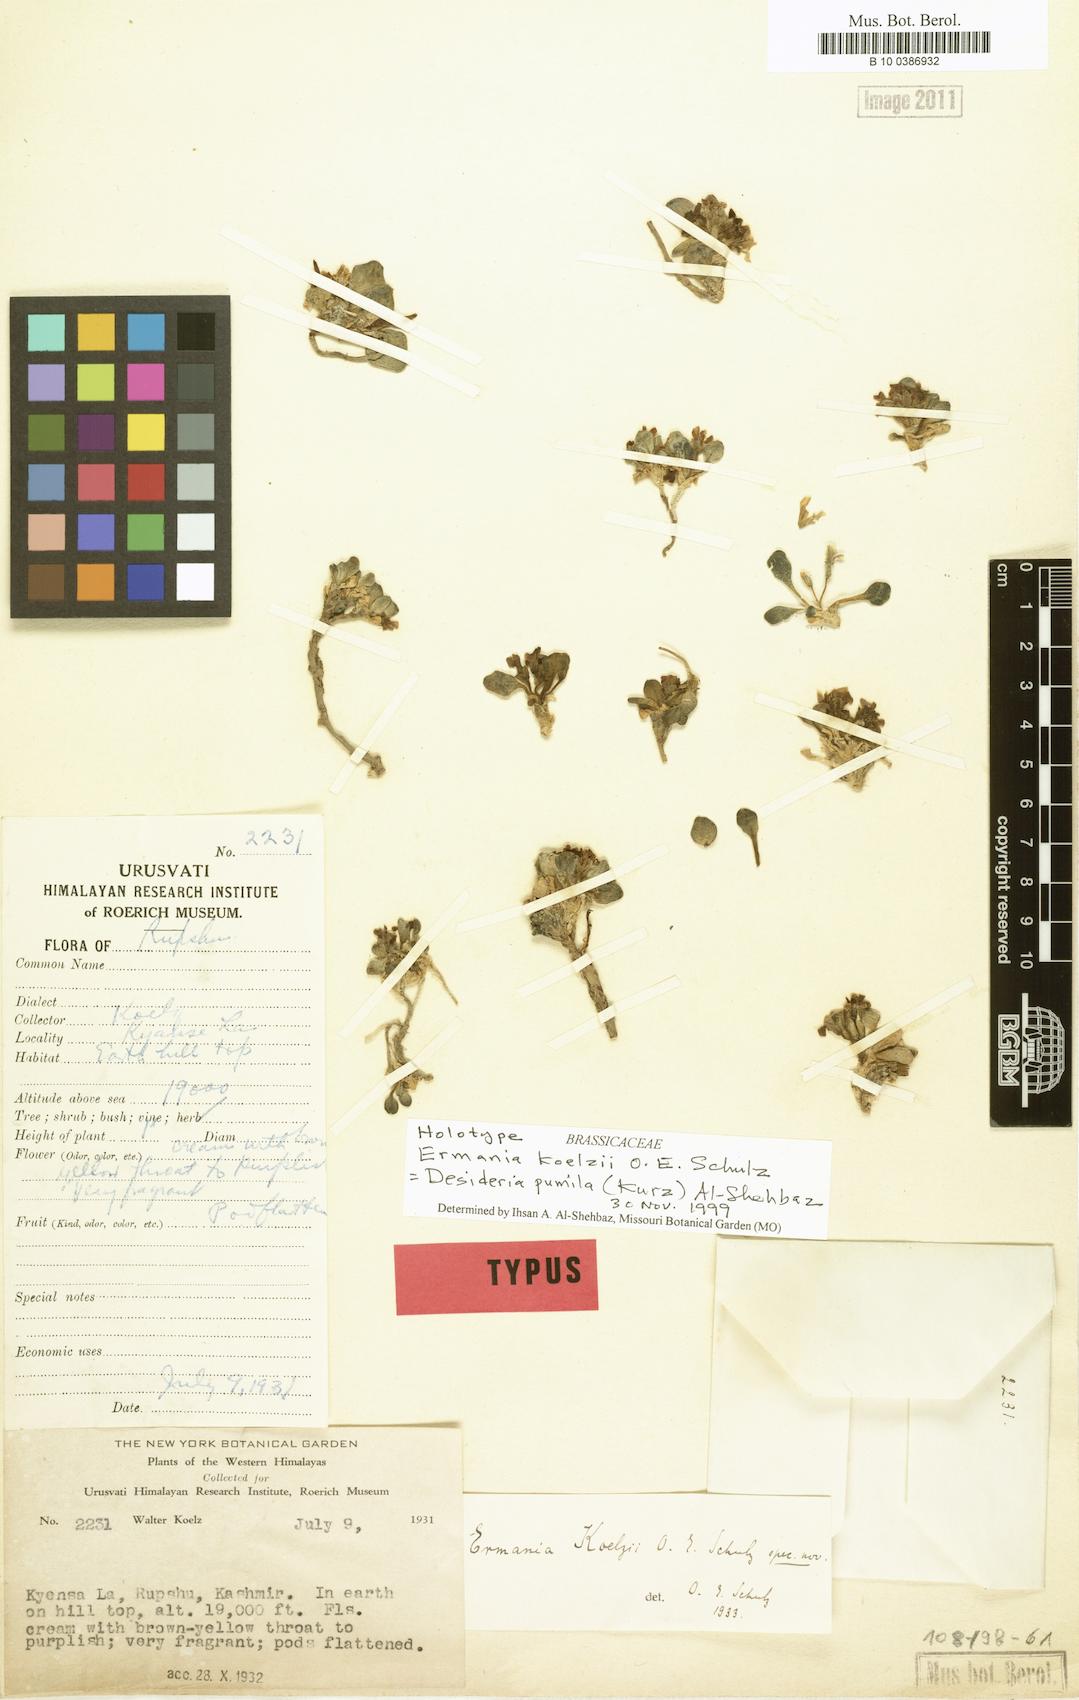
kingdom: Plantae
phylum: Tracheophyta
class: Magnoliopsida
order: Brassicales
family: Brassicaceae
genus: Solms-laubachia
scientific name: Solms-laubachia pumila
